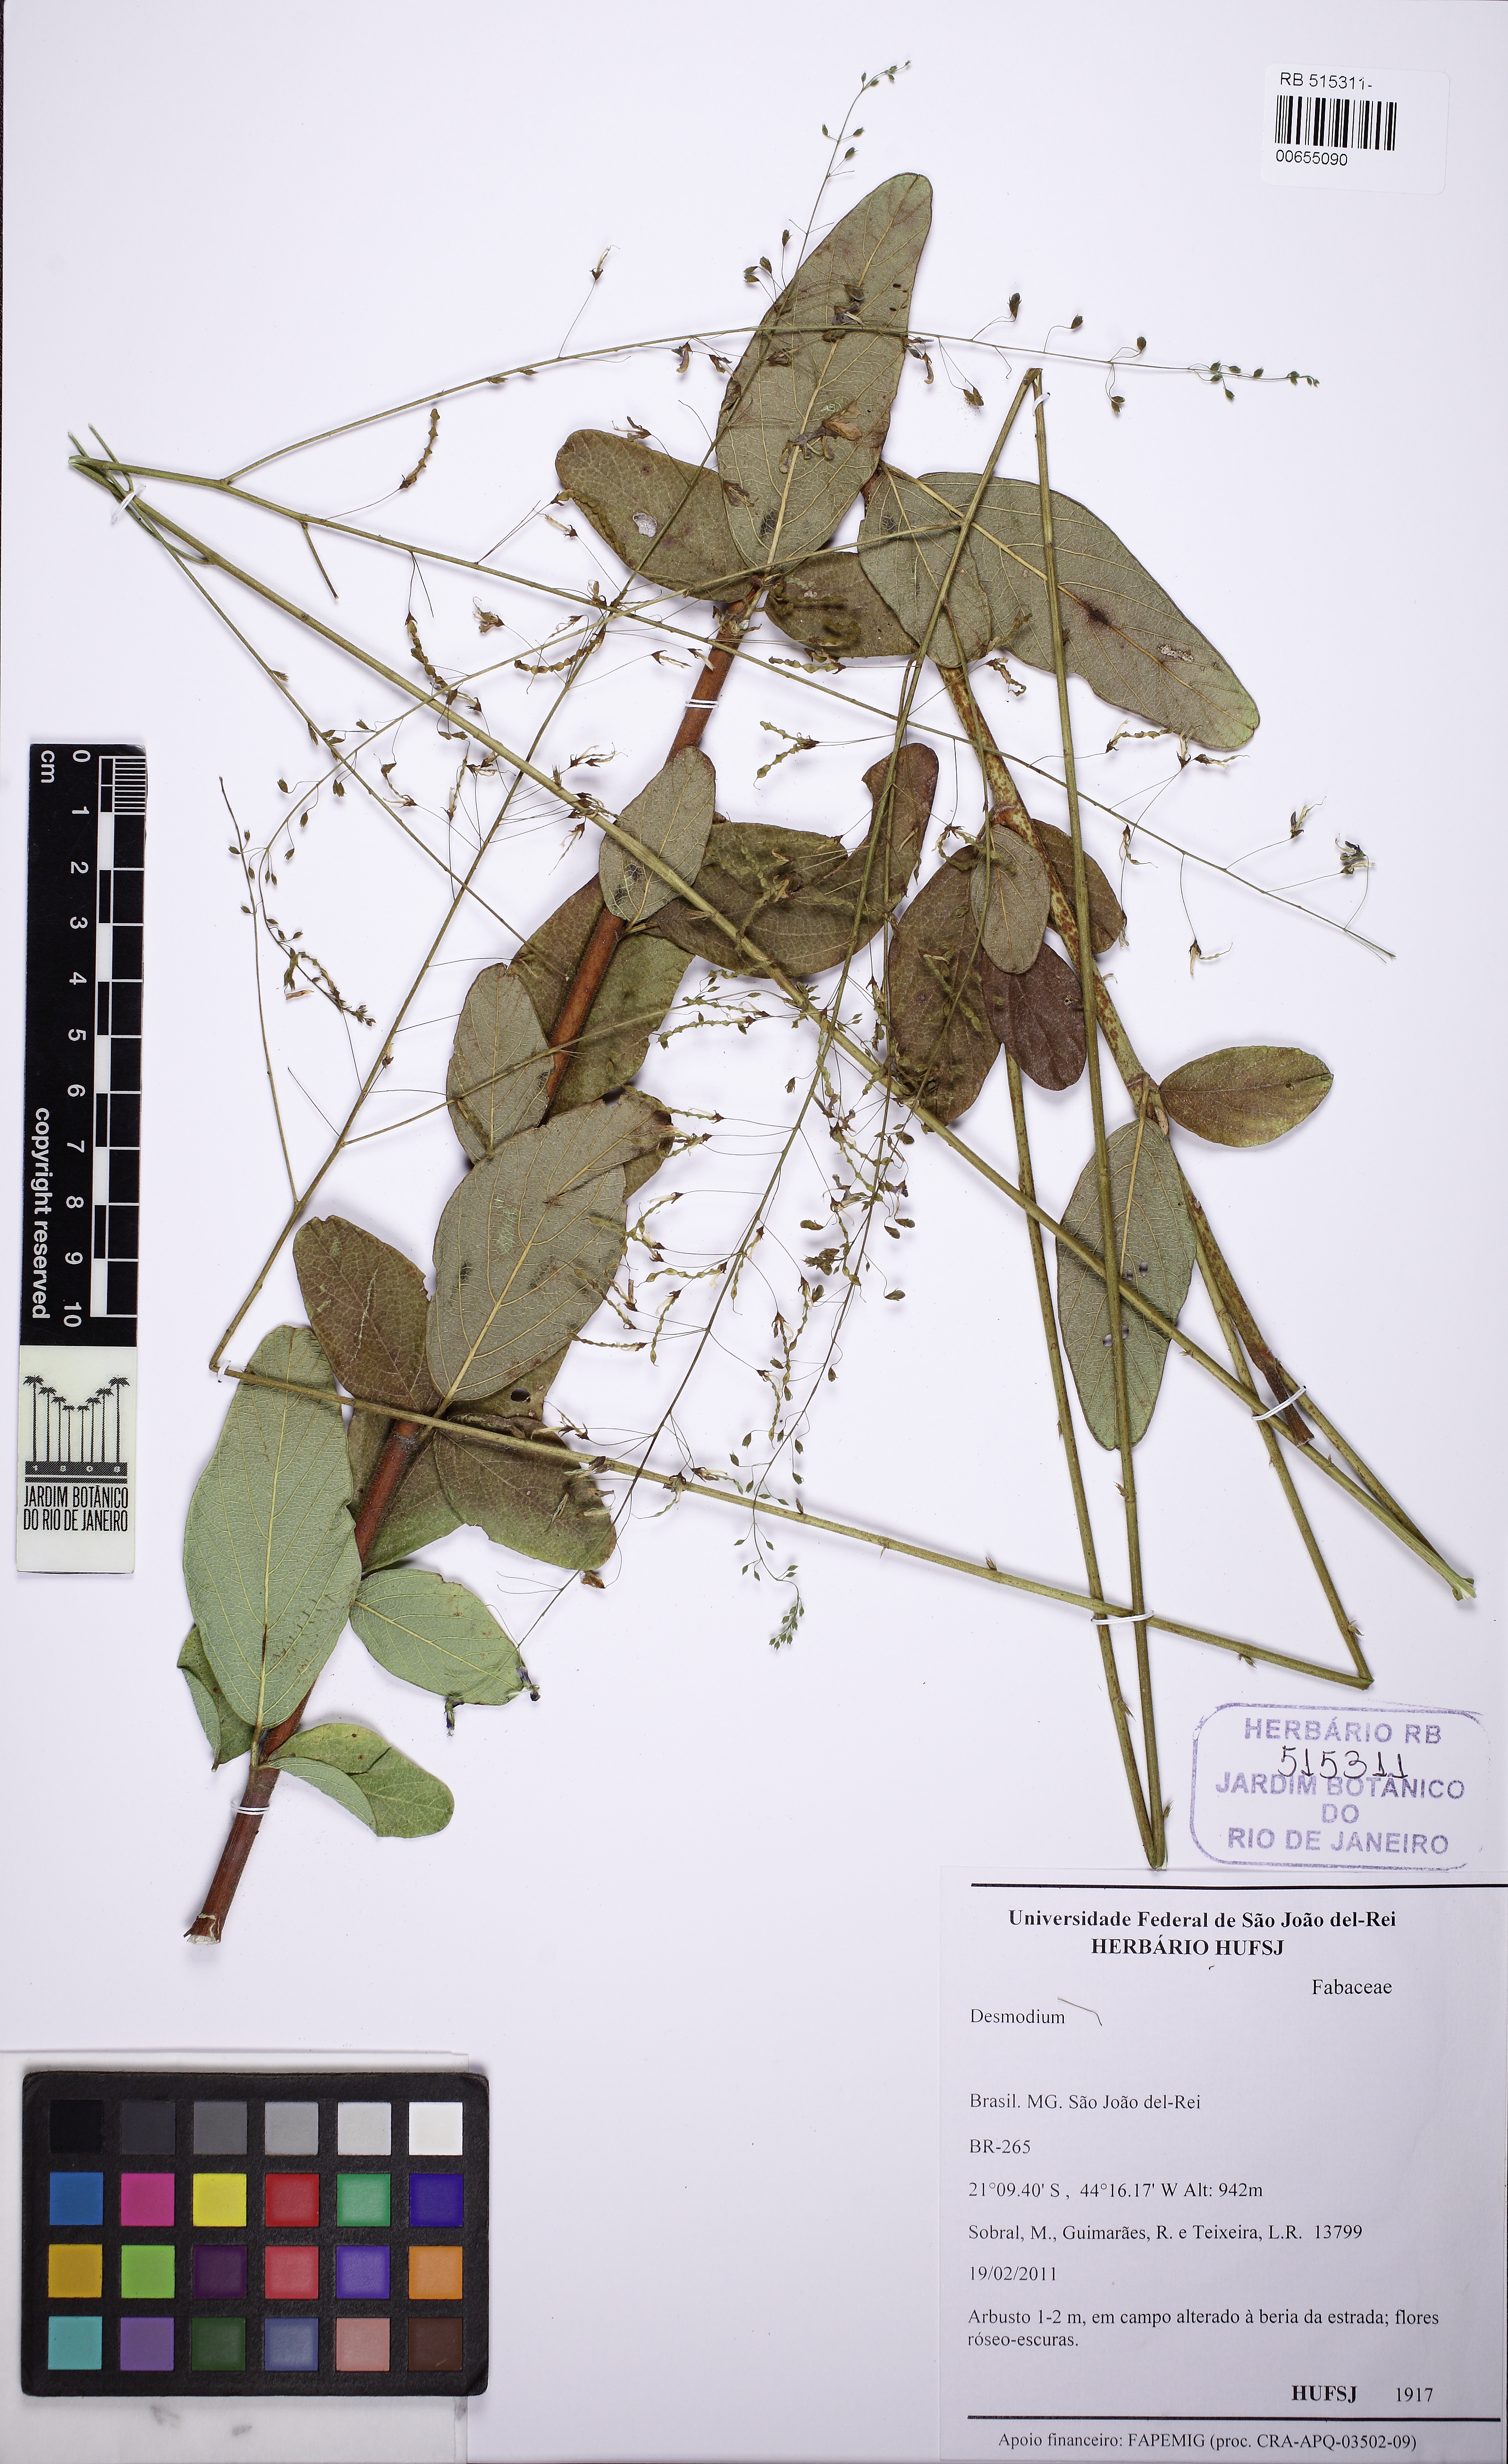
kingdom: Plantae
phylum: Tracheophyta
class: Magnoliopsida
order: Fabales
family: Fabaceae
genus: Desmodium
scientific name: Desmodium subsecundum
